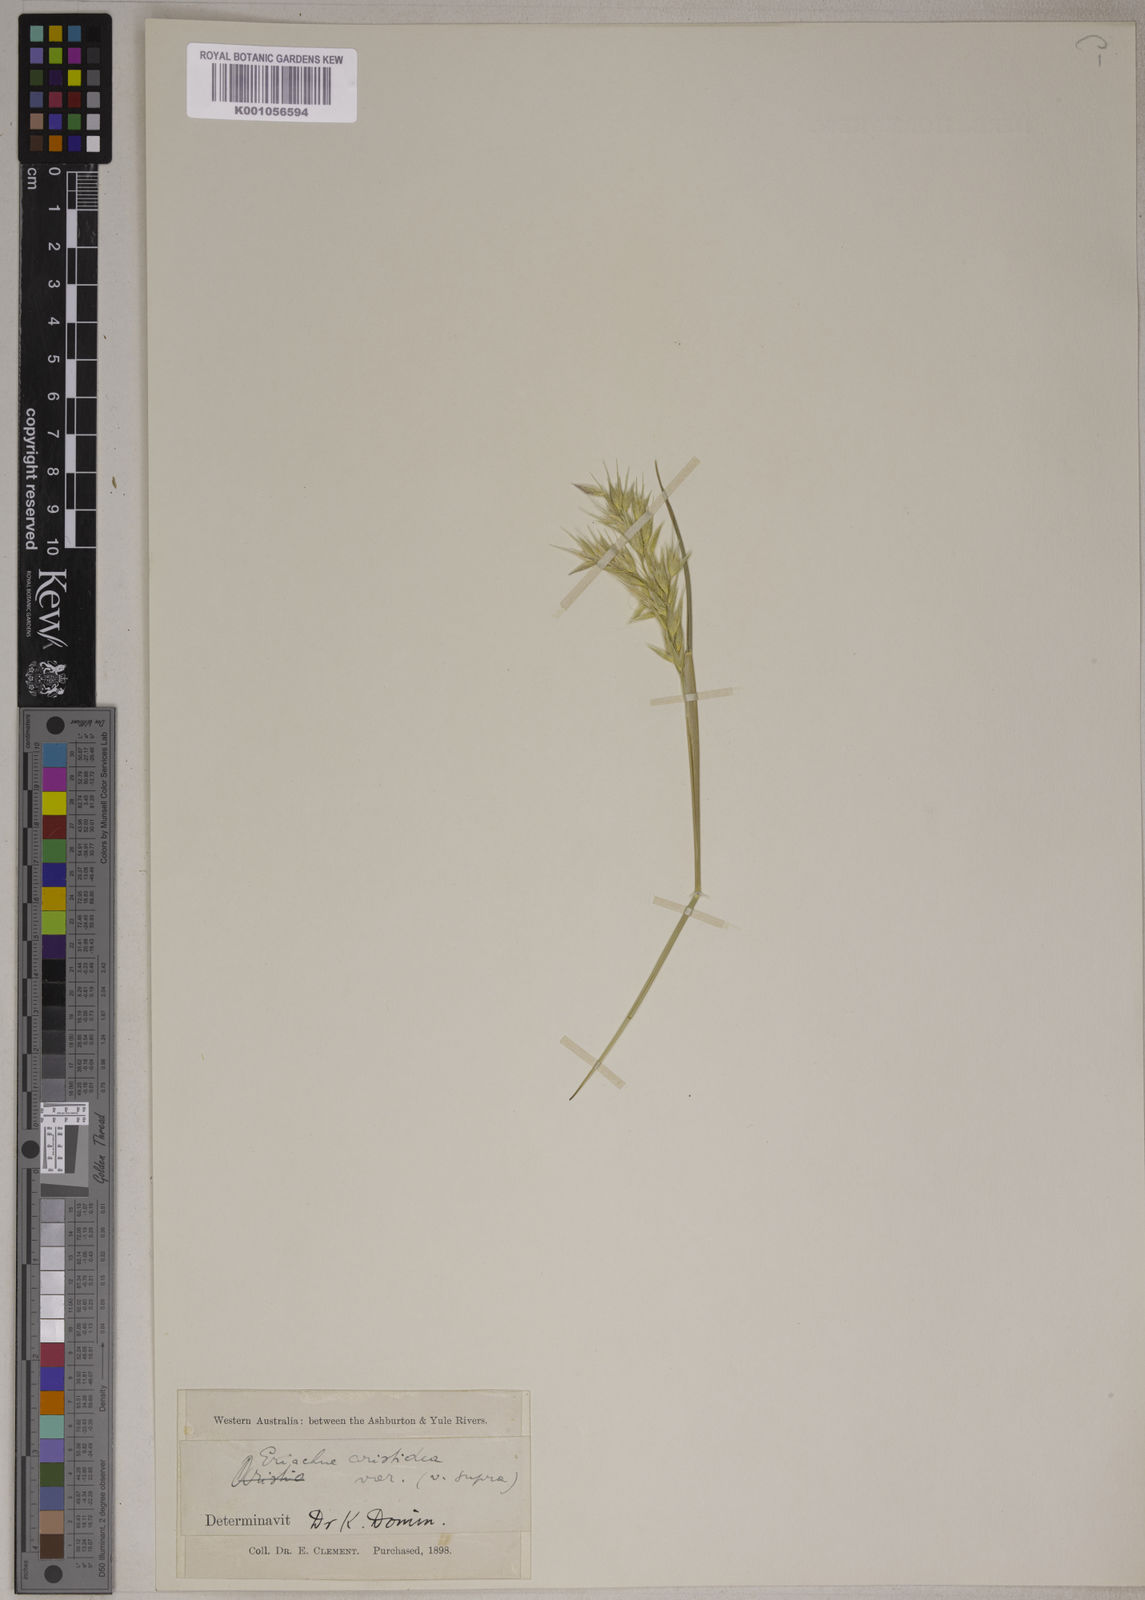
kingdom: Plantae
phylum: Tracheophyta
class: Liliopsida
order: Poales
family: Poaceae
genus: Eriachne
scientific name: Eriachne aristidea
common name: Three-awn wanderrie grass
